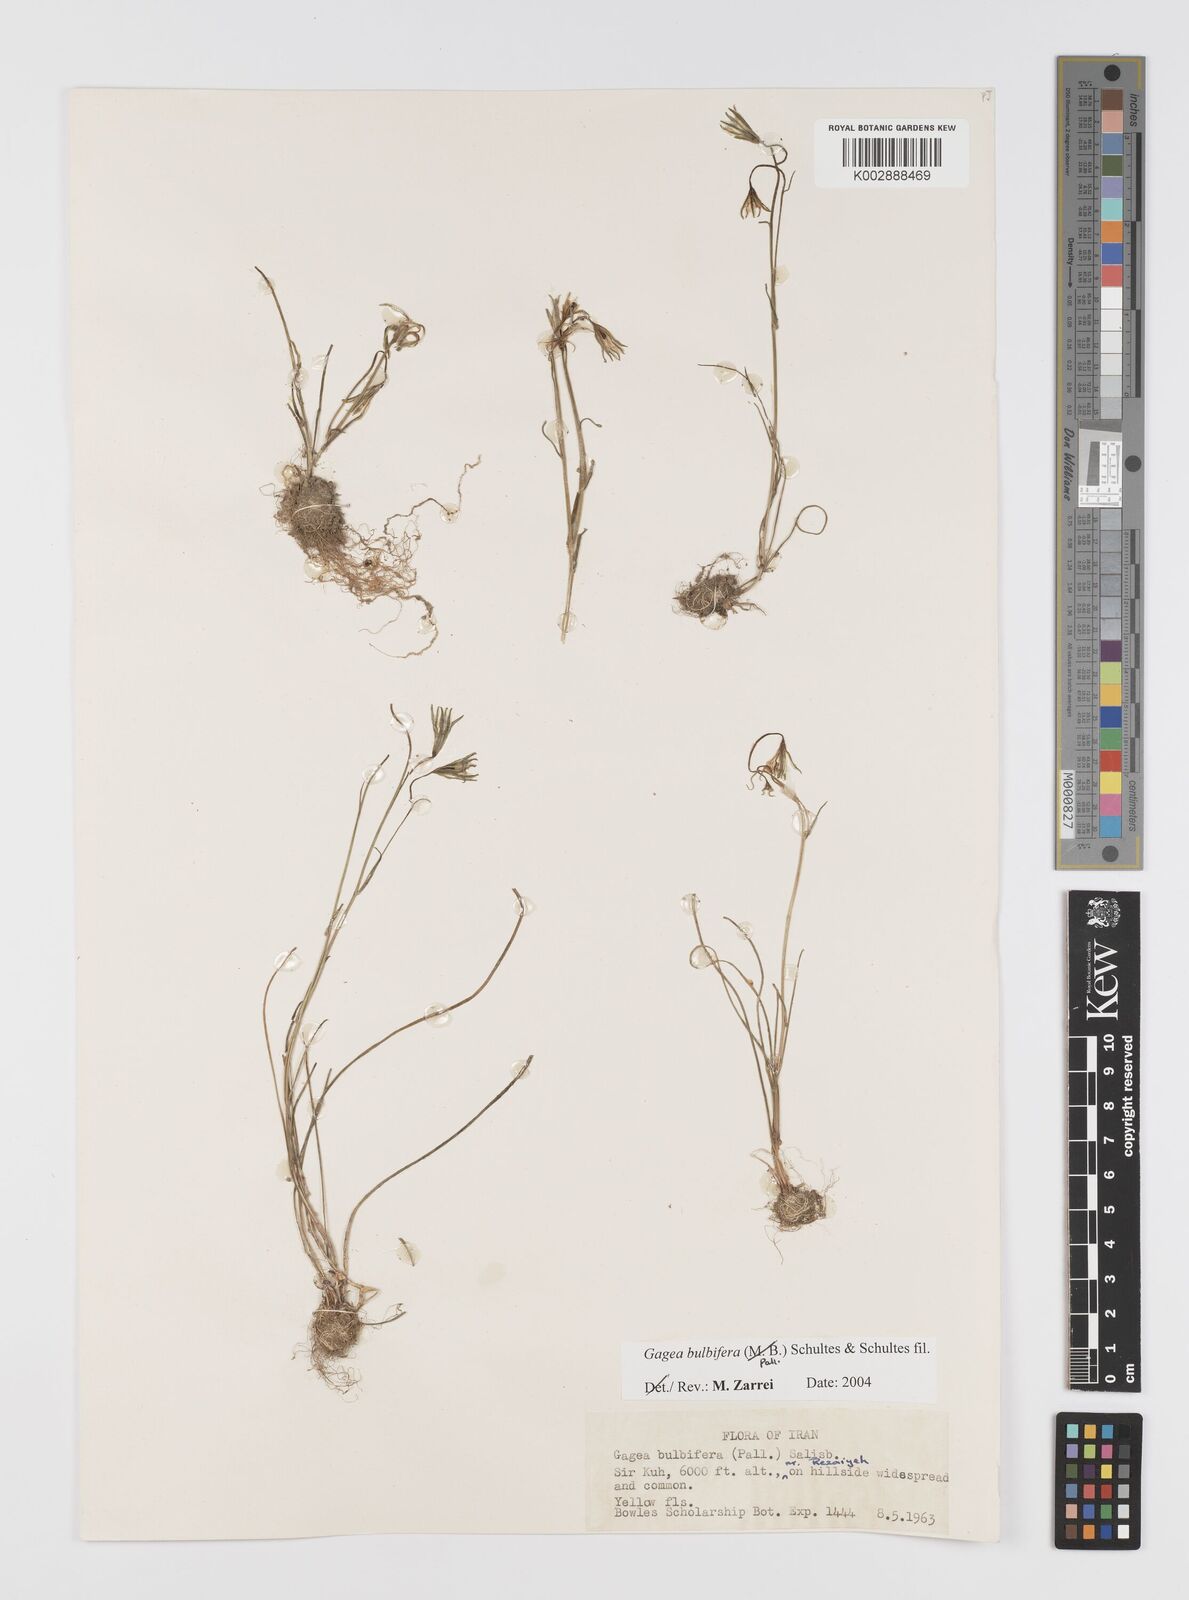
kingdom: Plantae
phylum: Tracheophyta
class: Liliopsida
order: Liliales
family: Liliaceae
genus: Gagea
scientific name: Gagea bulbifera
